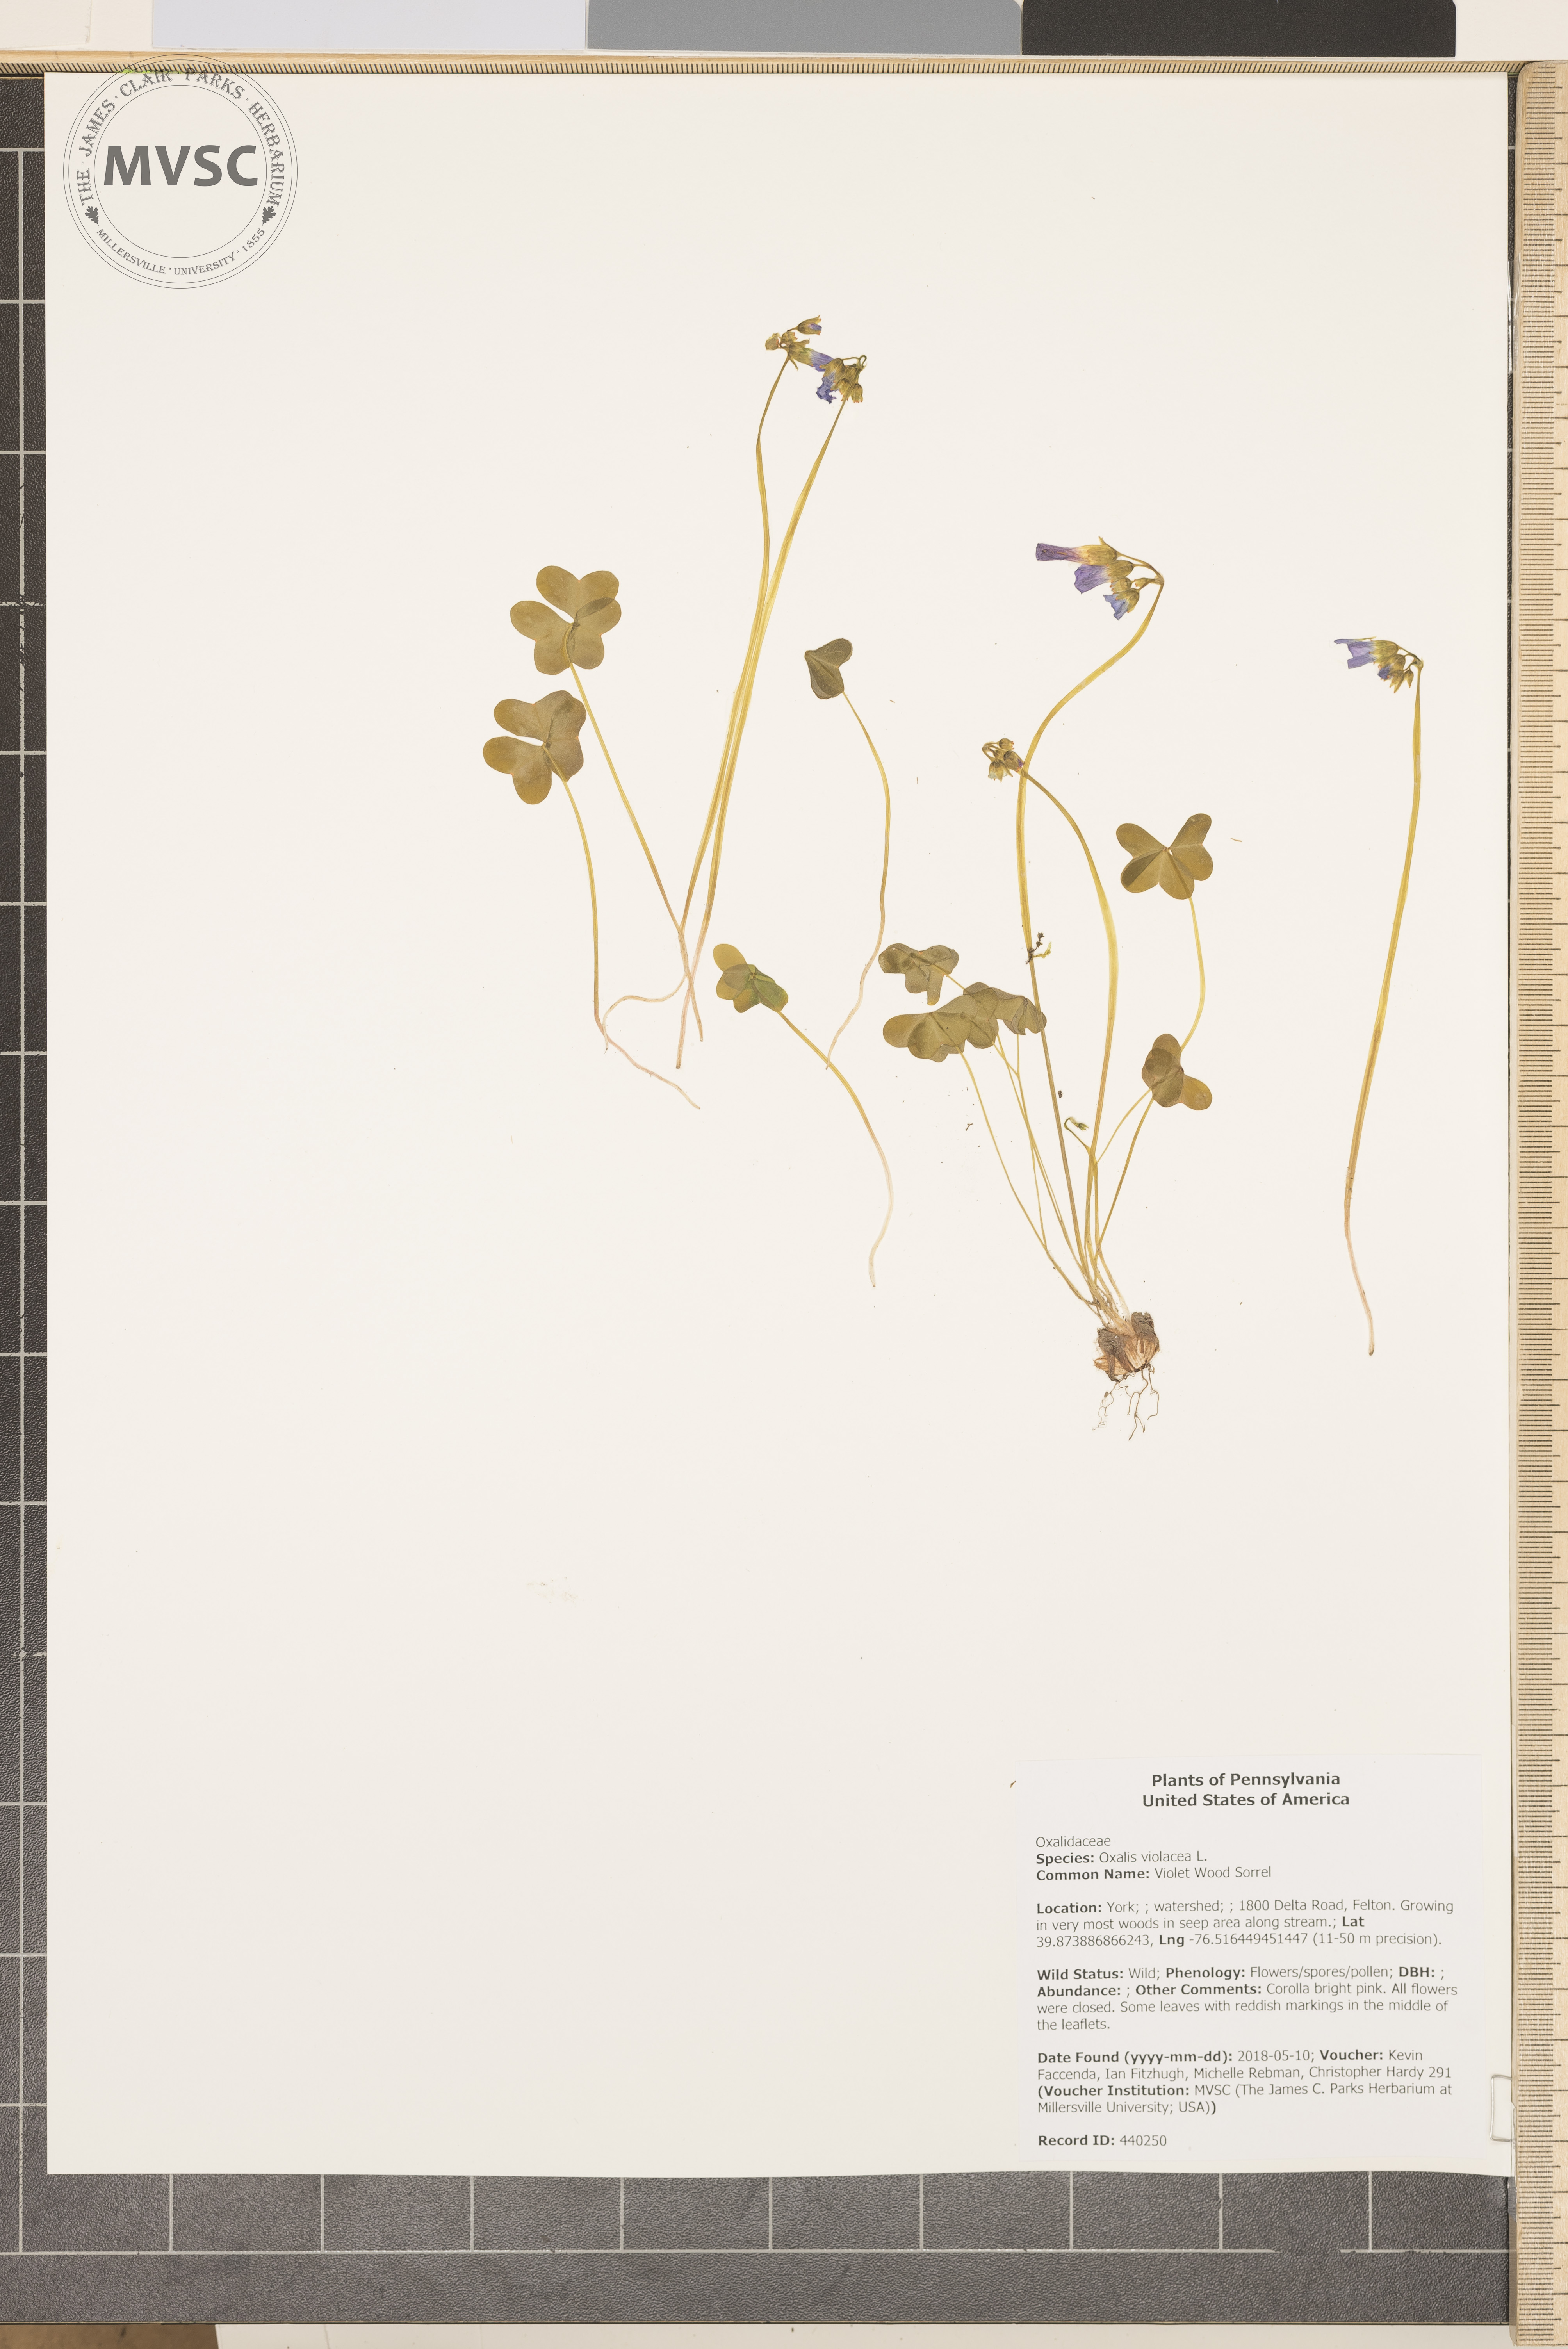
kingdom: Plantae
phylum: Tracheophyta
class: Magnoliopsida
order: Oxalidales
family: Oxalidaceae
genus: Oxalis
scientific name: Oxalis violacea
